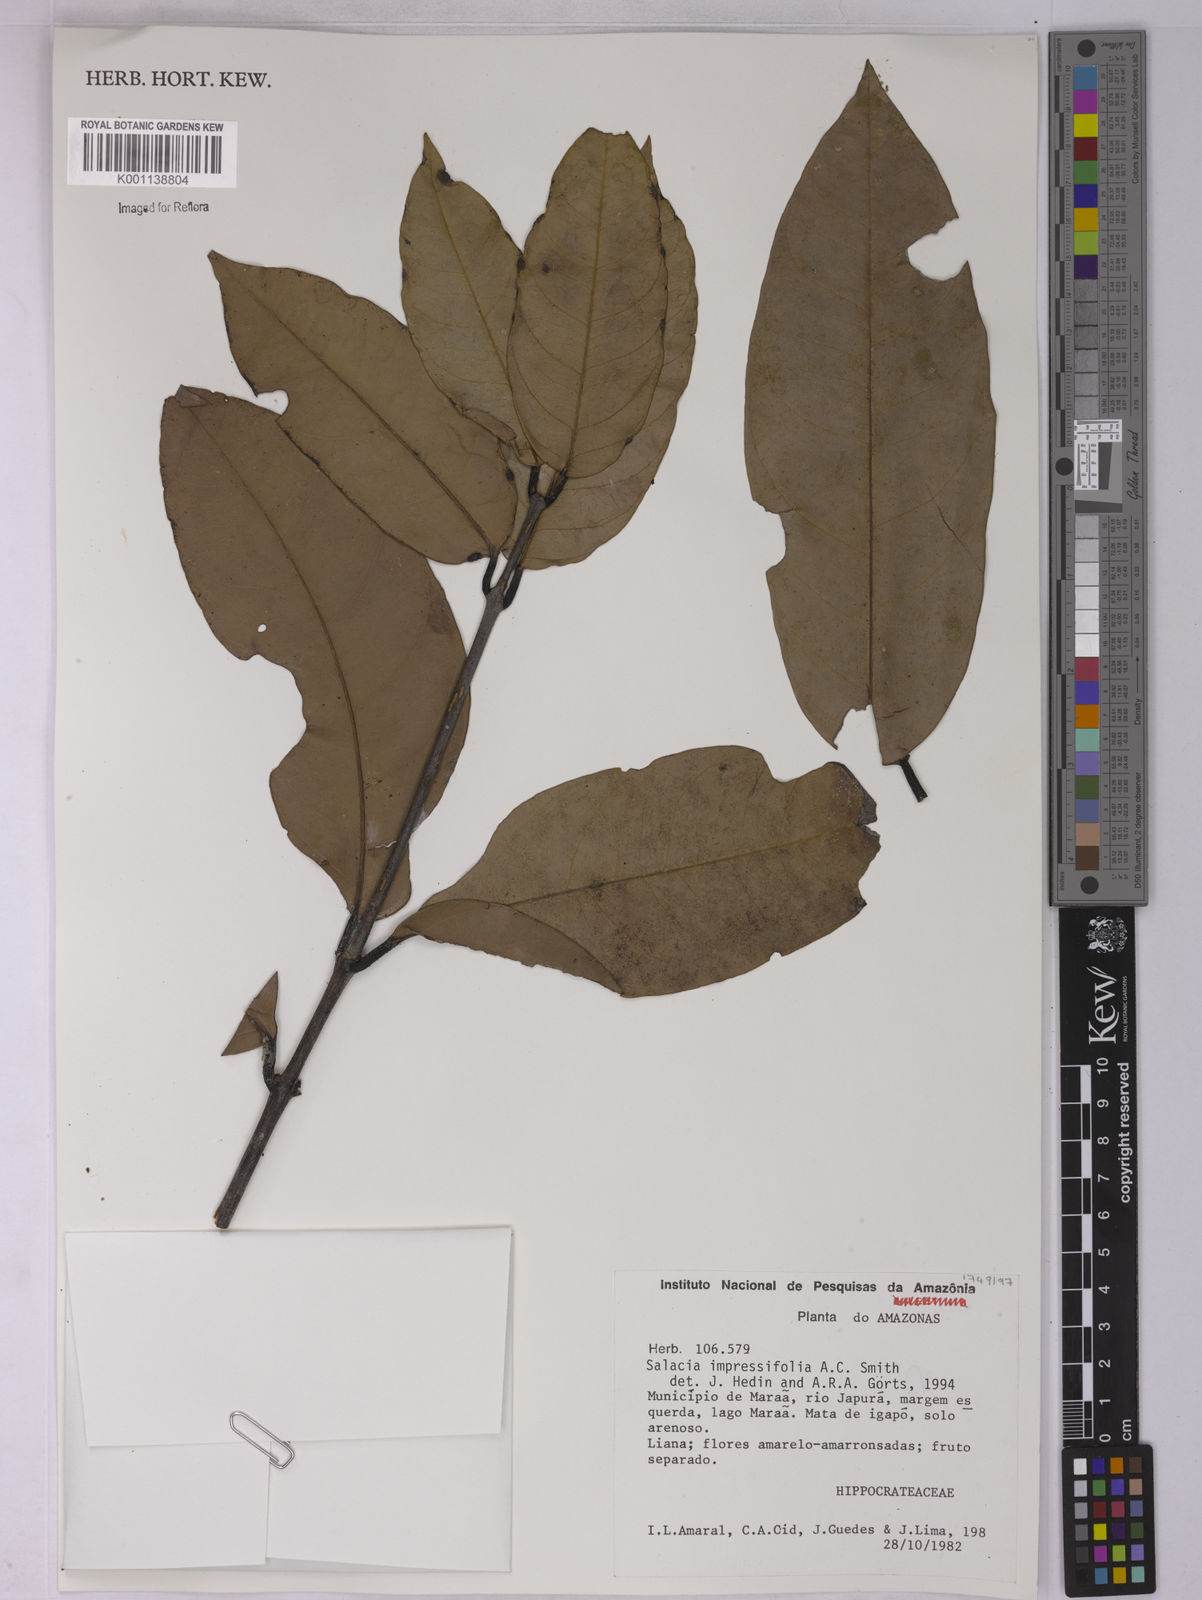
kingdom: Plantae
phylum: Tracheophyta
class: Magnoliopsida
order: Celastrales
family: Celastraceae
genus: Salacia
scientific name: Salacia impressifolia
